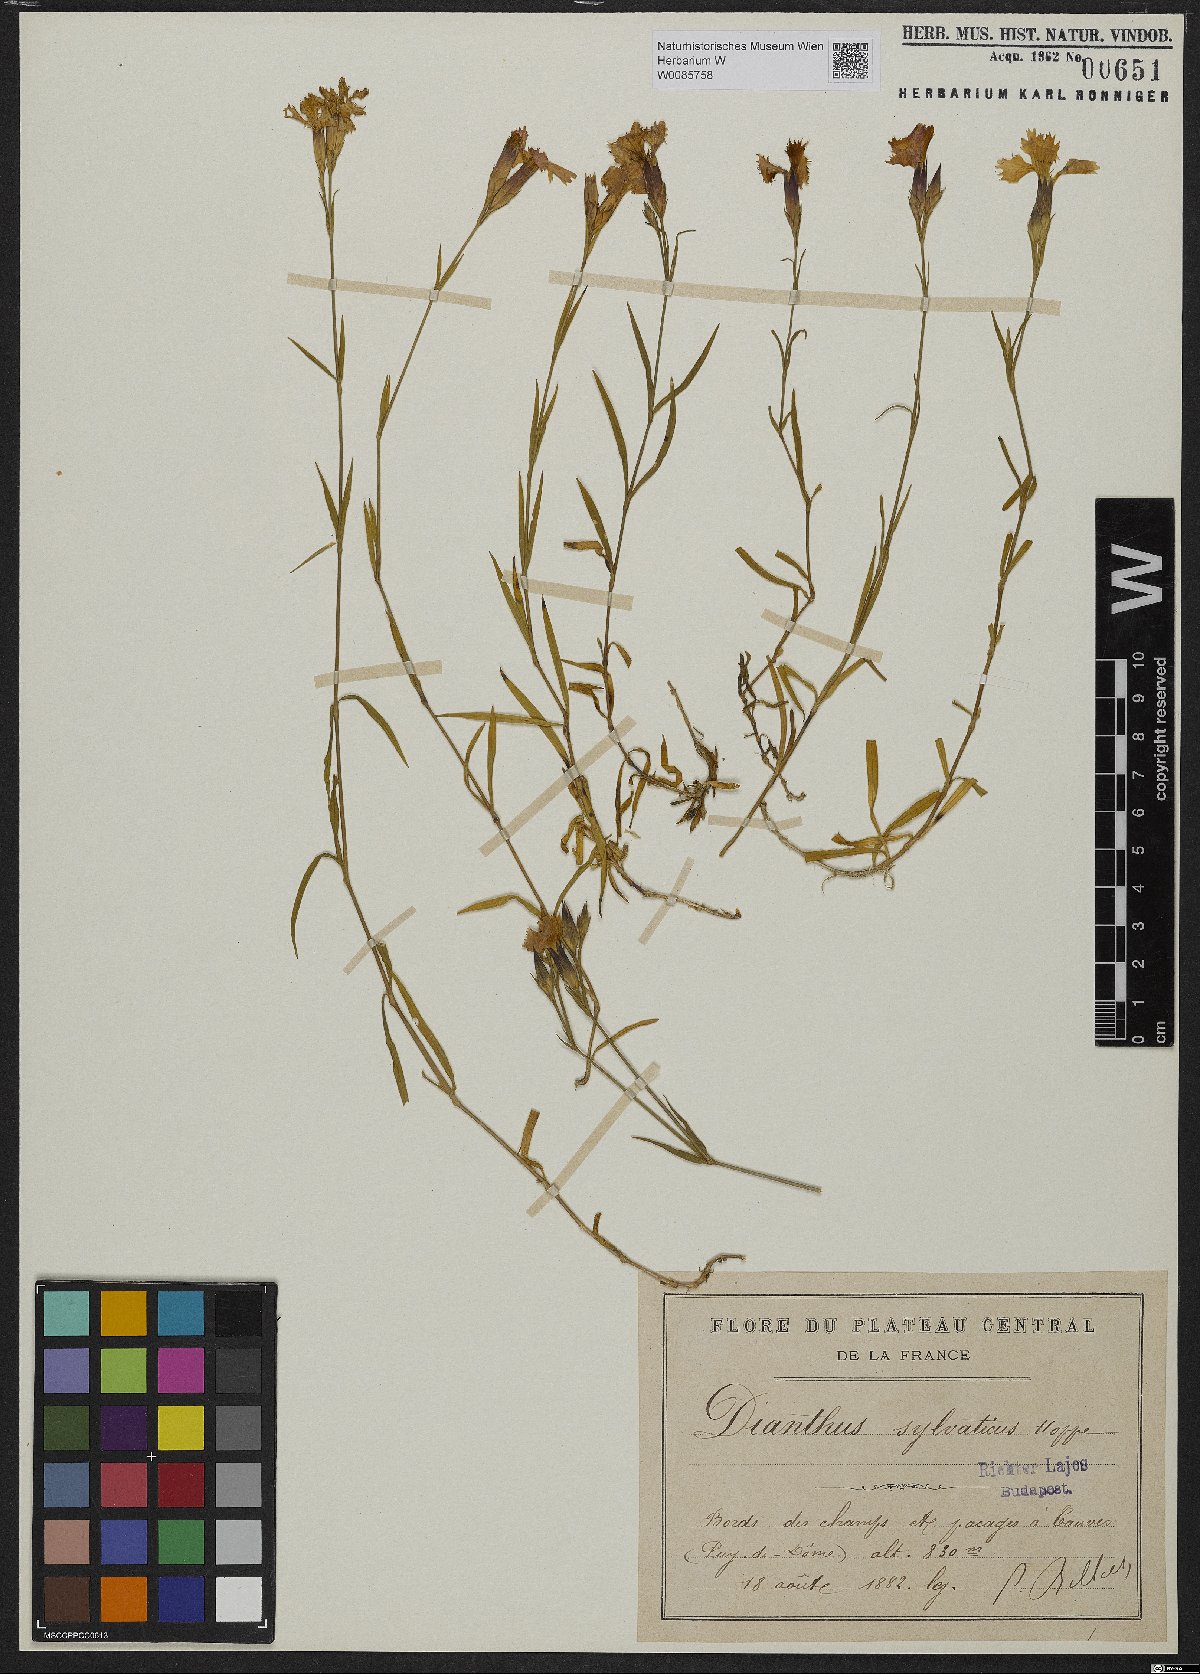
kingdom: Plantae
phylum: Tracheophyta
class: Magnoliopsida
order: Caryophyllales
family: Caryophyllaceae
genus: Dianthus
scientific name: Dianthus seguieri
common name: Ragged pink
